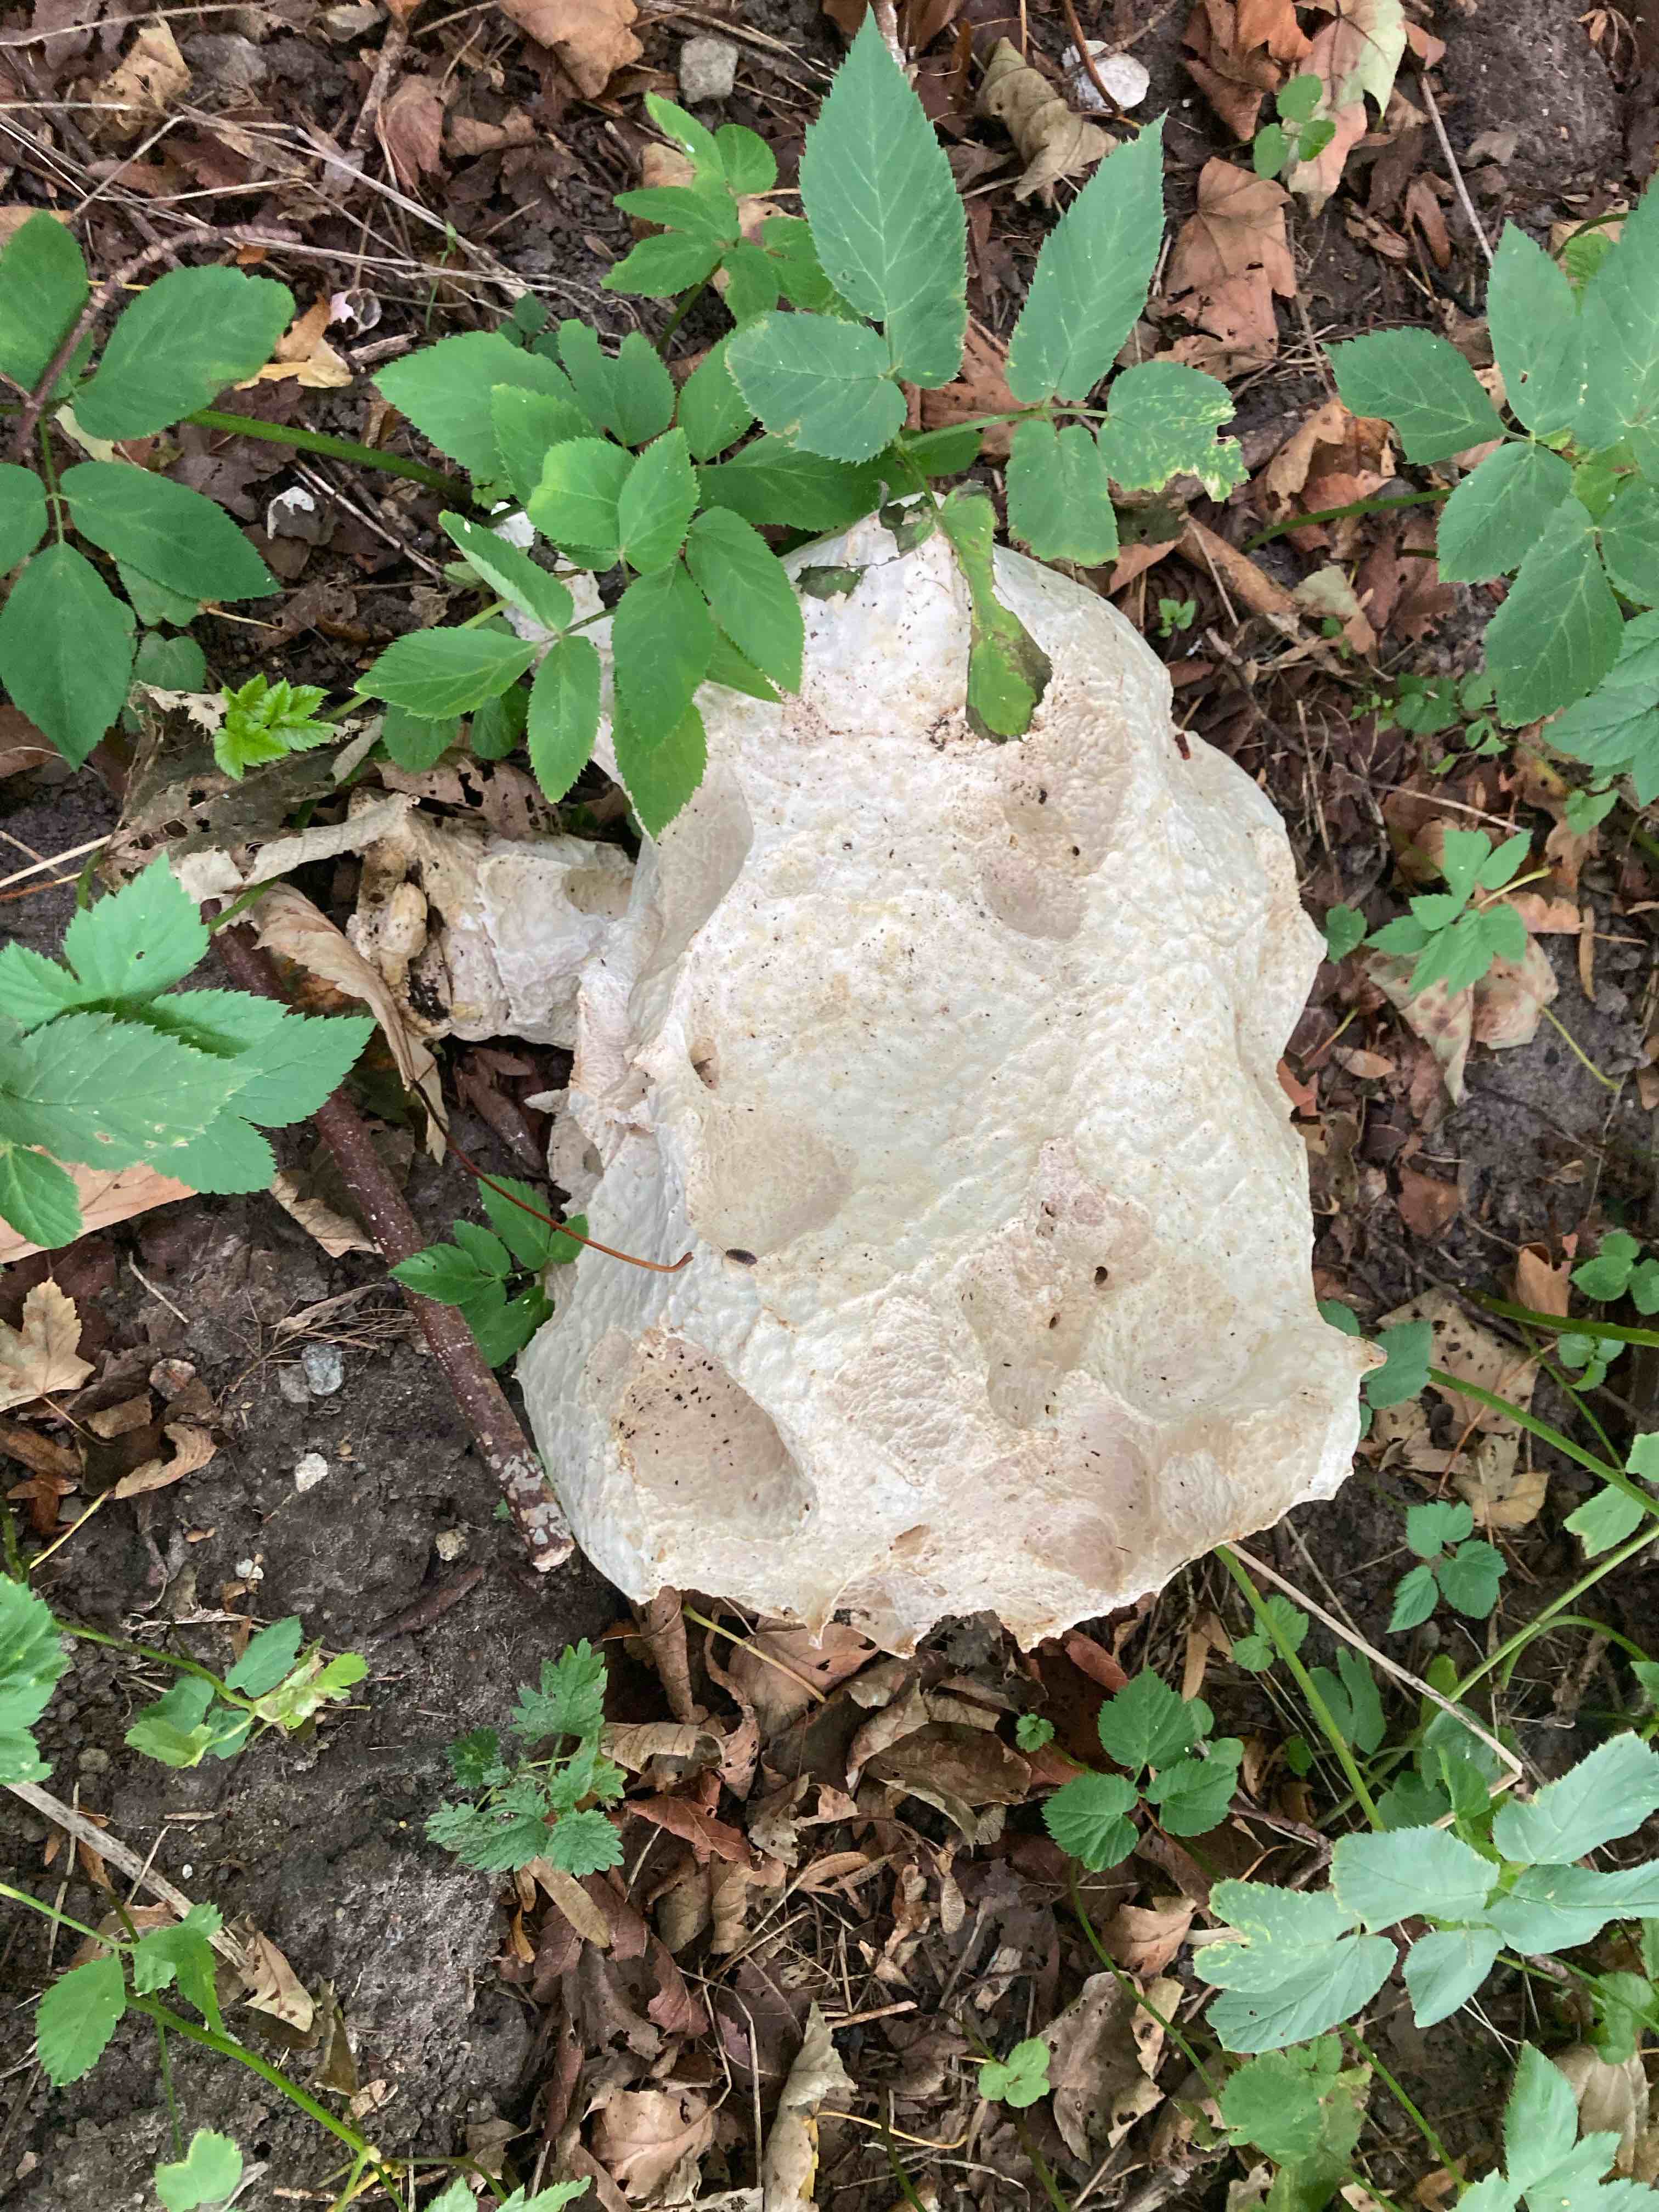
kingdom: Fungi
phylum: Basidiomycota
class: Agaricomycetes
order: Agaricales
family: Lycoperdaceae
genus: Calvatia
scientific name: Calvatia gigantea
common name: kæmpestøvbold
